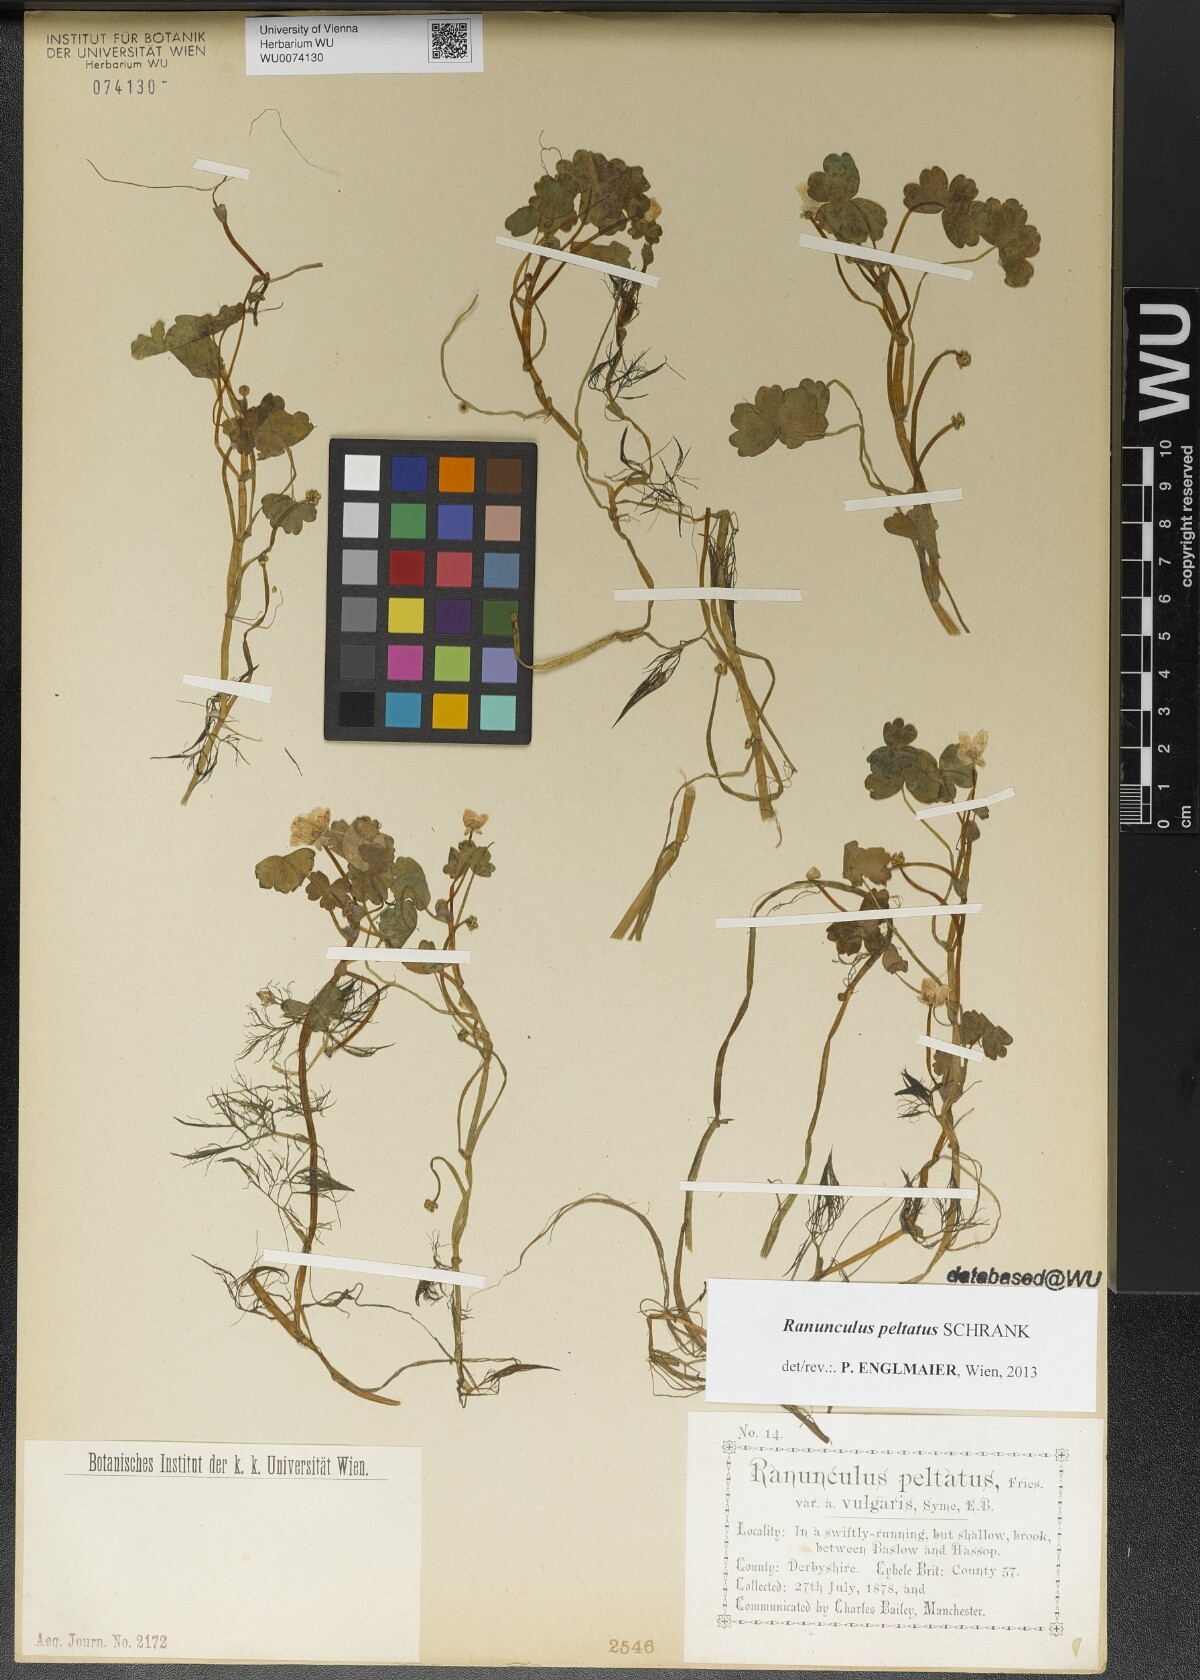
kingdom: Plantae
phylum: Tracheophyta
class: Magnoliopsida
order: Ranunculales
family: Ranunculaceae
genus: Ranunculus
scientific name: Ranunculus peltatus
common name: Pond water-crowfoot
